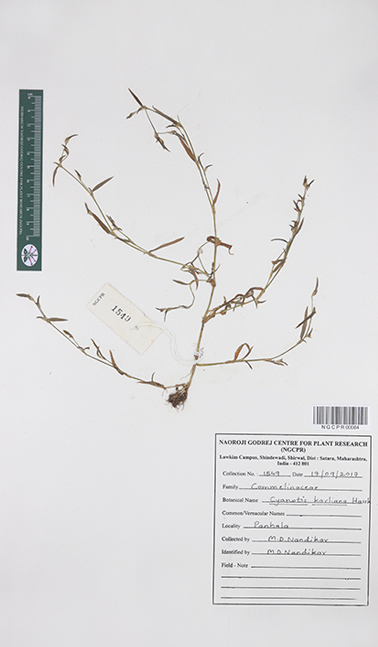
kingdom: Plantae
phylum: Tracheophyta
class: Liliopsida
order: Commelinales
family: Commelinaceae
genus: Cyanotis
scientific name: Cyanotis karliana
